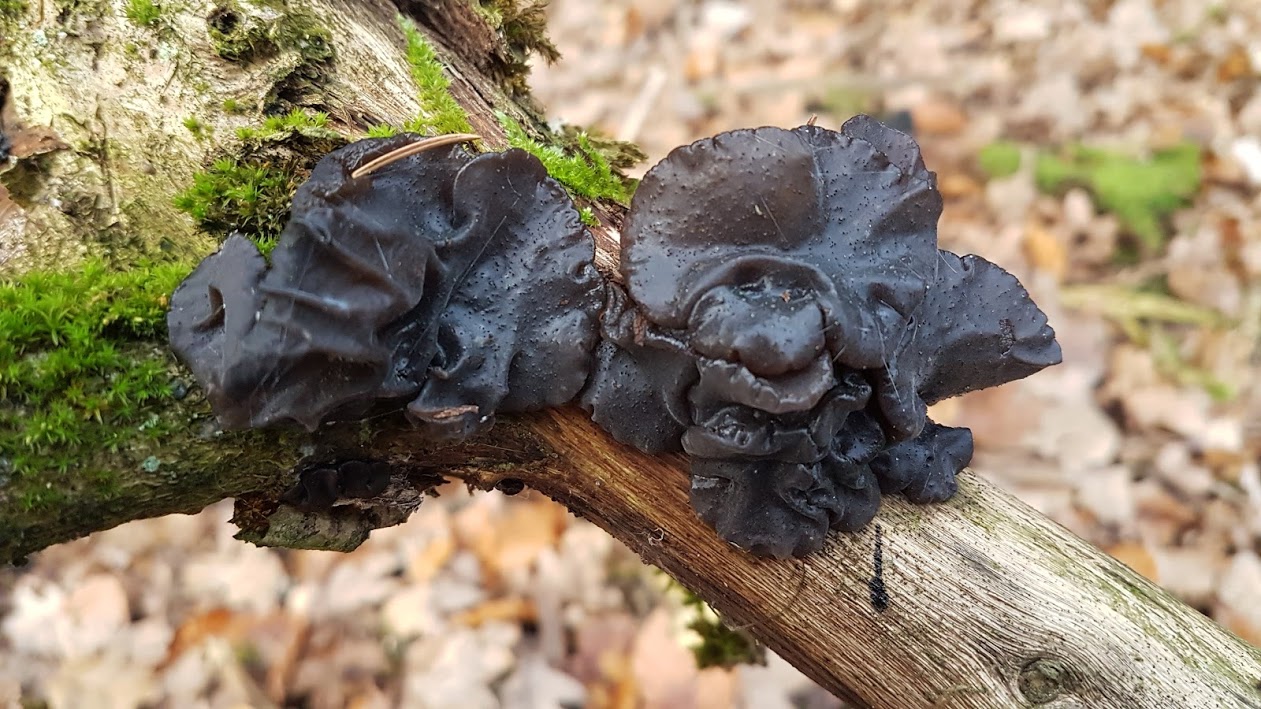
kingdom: Fungi
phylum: Basidiomycota
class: Agaricomycetes
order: Auriculariales
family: Auriculariaceae
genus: Exidia
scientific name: Exidia glandulosa
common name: ege-bævretop
